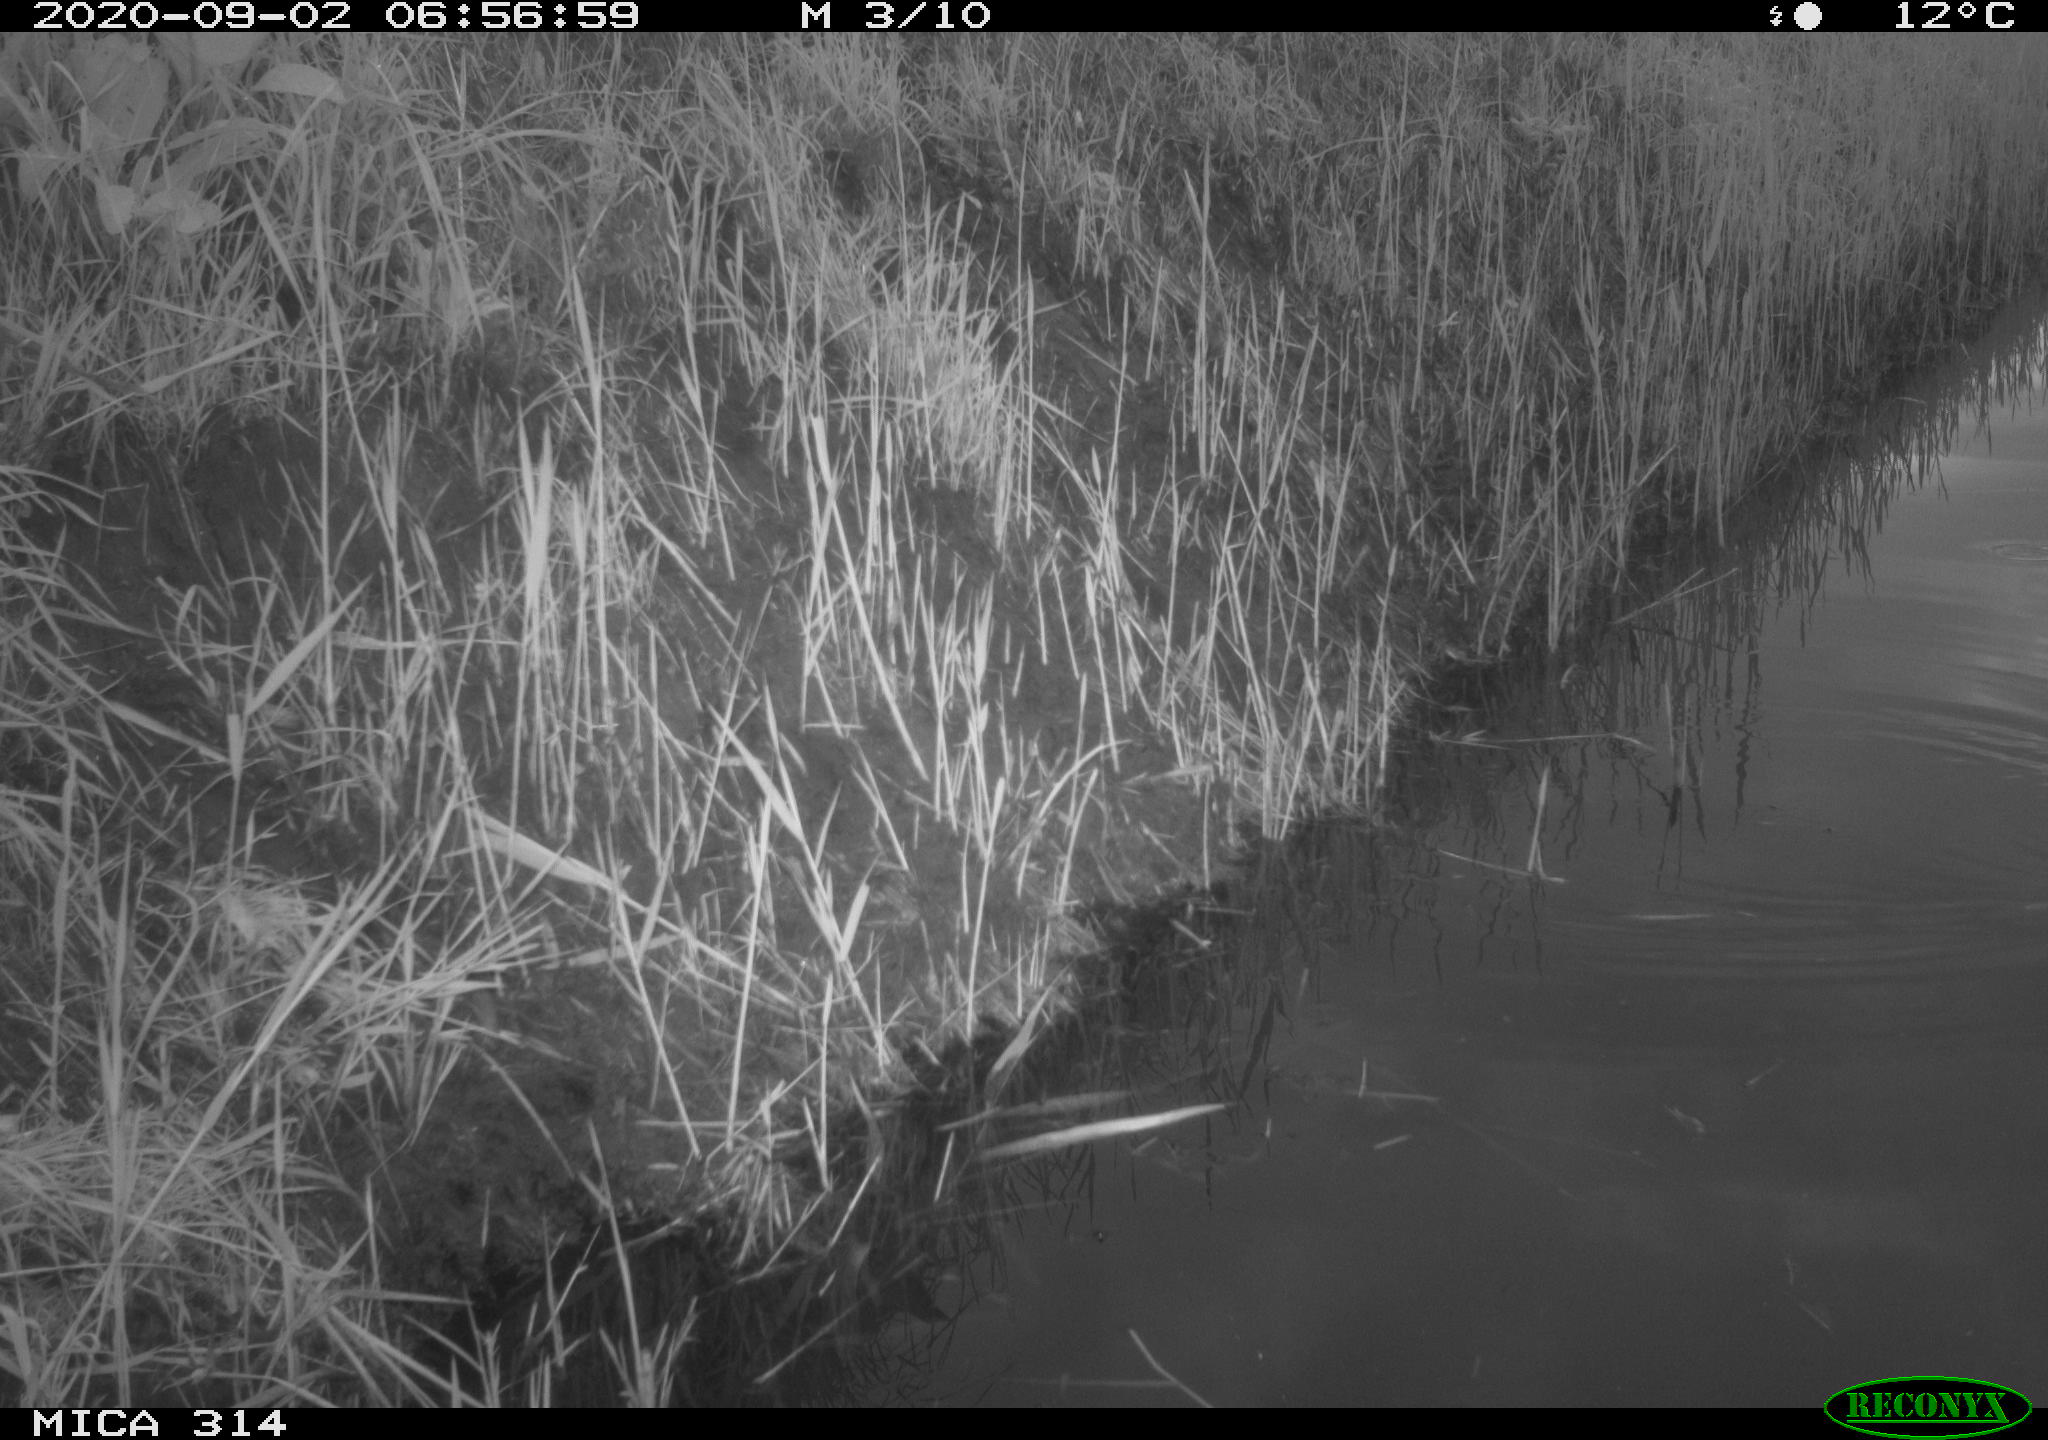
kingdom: Animalia
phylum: Chordata
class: Aves
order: Gruiformes
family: Rallidae
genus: Gallinula
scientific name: Gallinula chloropus
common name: Common moorhen
